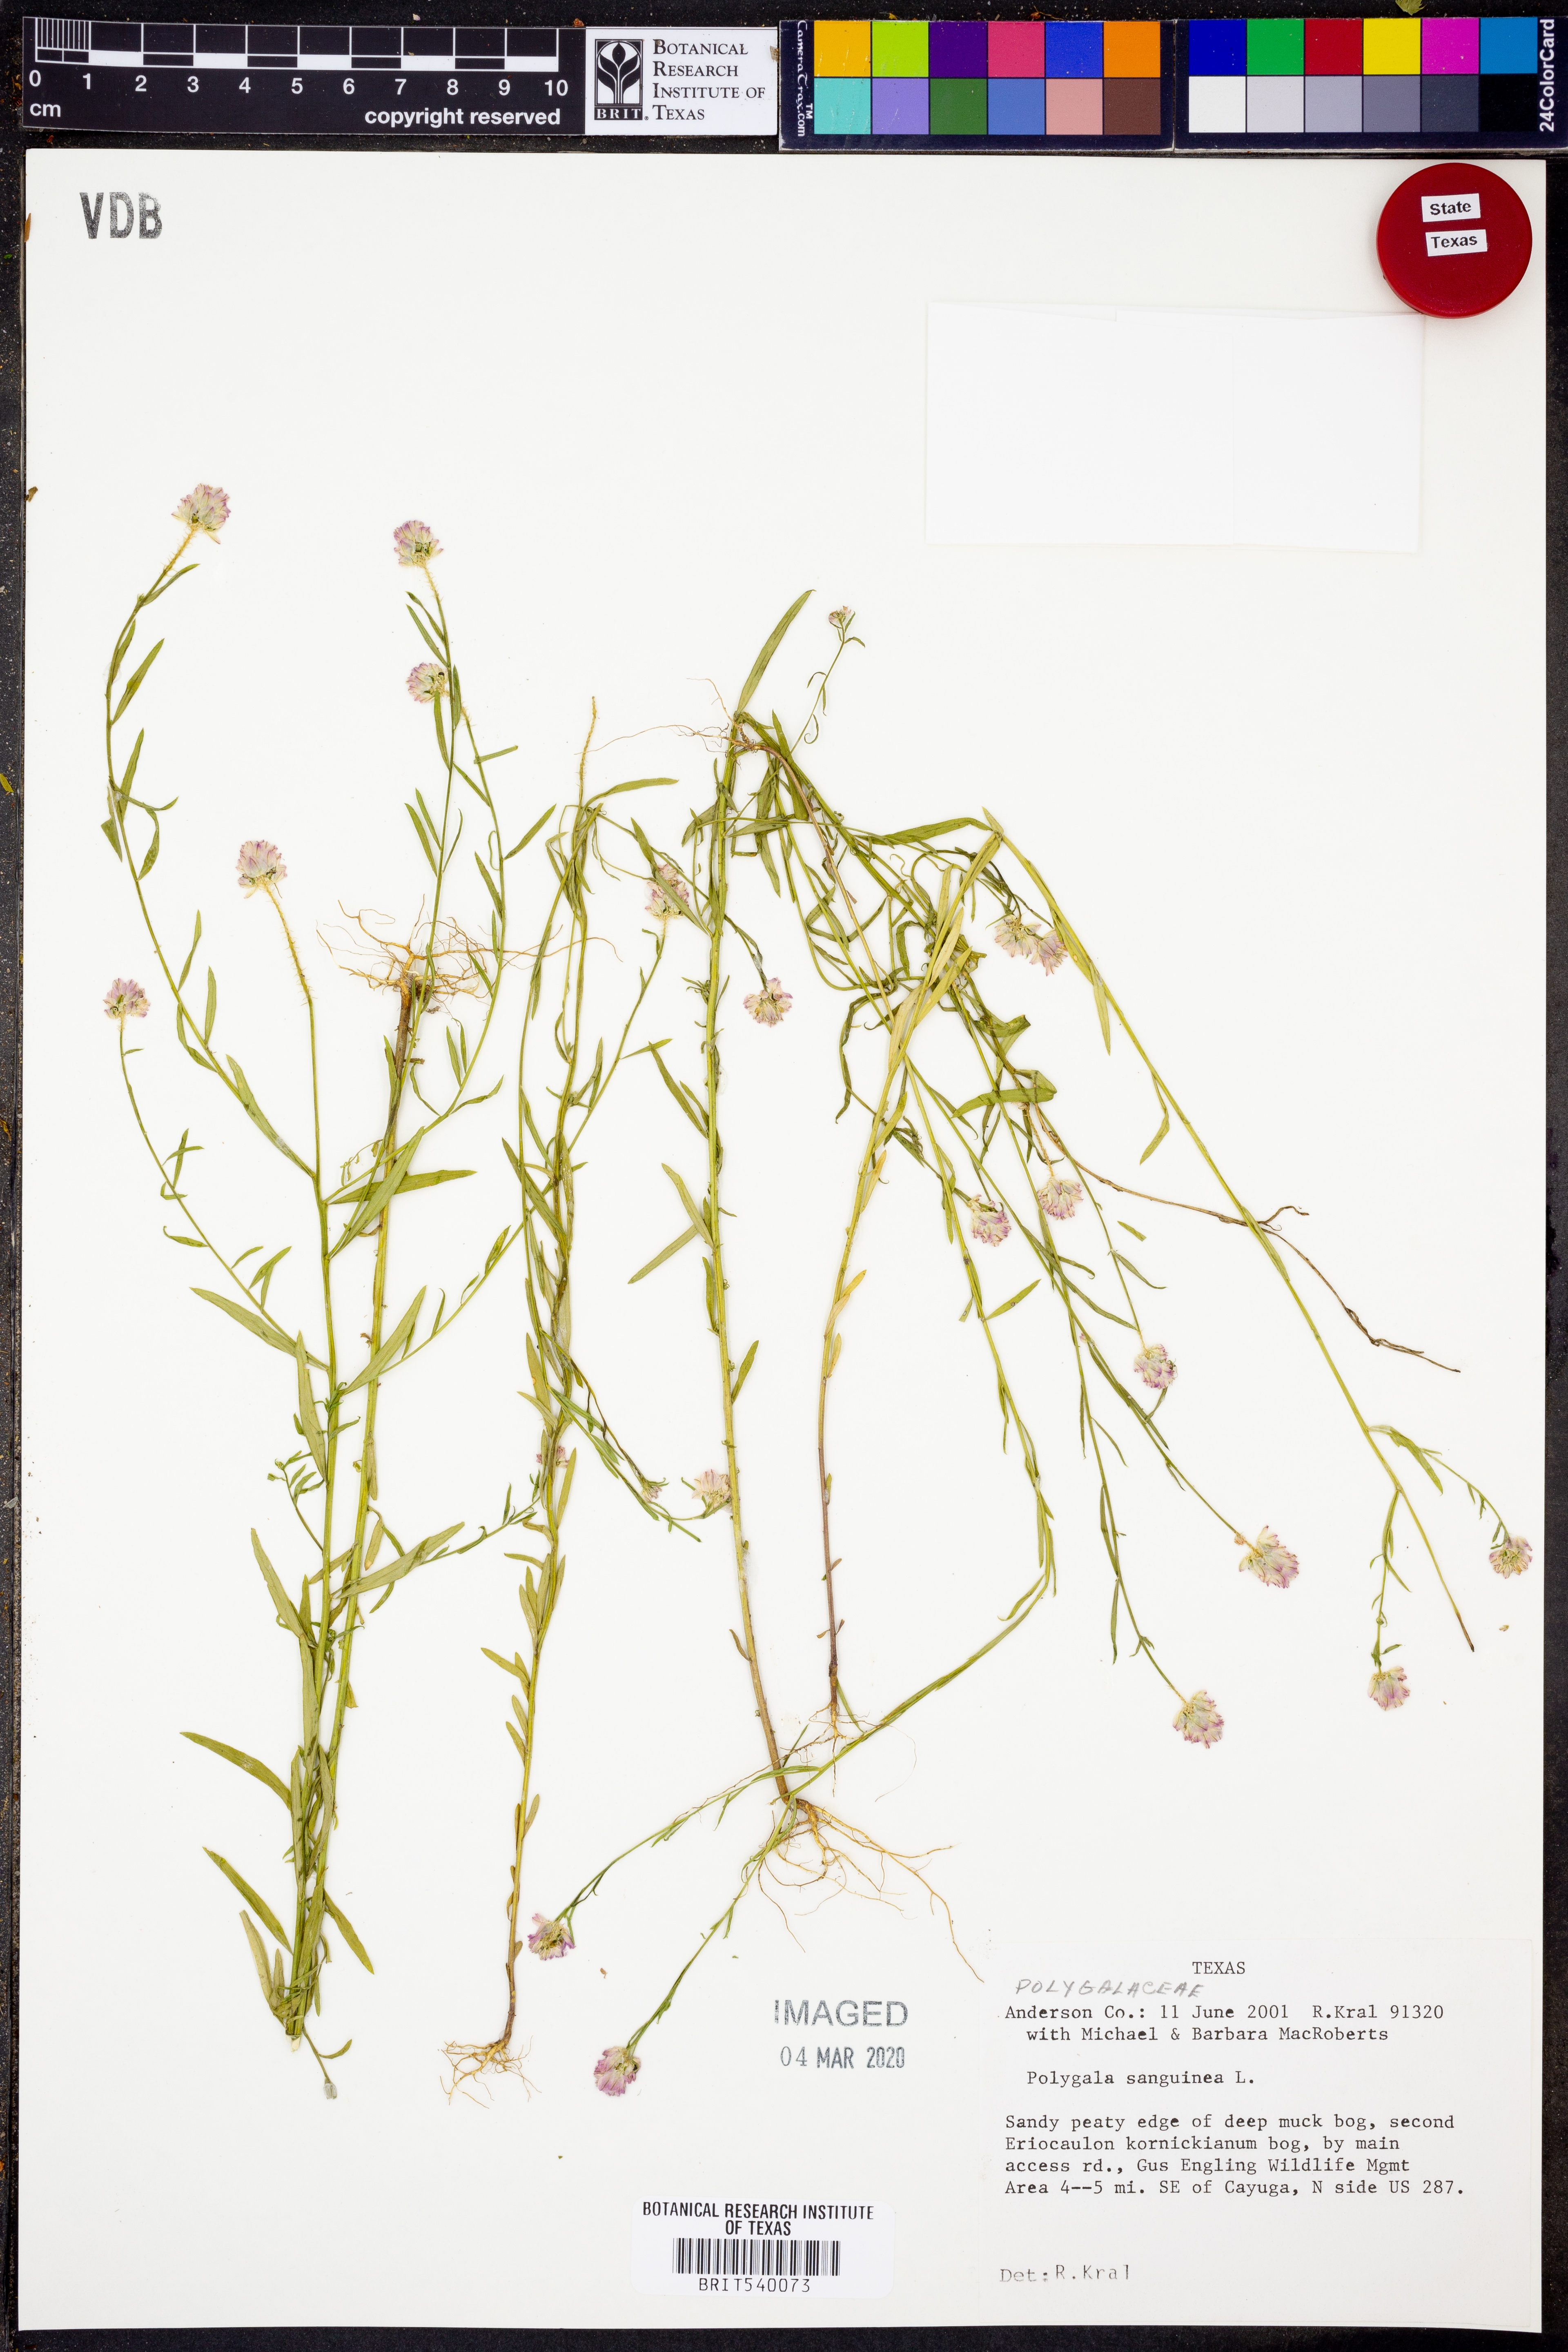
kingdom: Plantae
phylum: Tracheophyta
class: Magnoliopsida
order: Fabales
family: Polygalaceae
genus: Polygala
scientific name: Polygala sanguinea
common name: Blood milkwort
